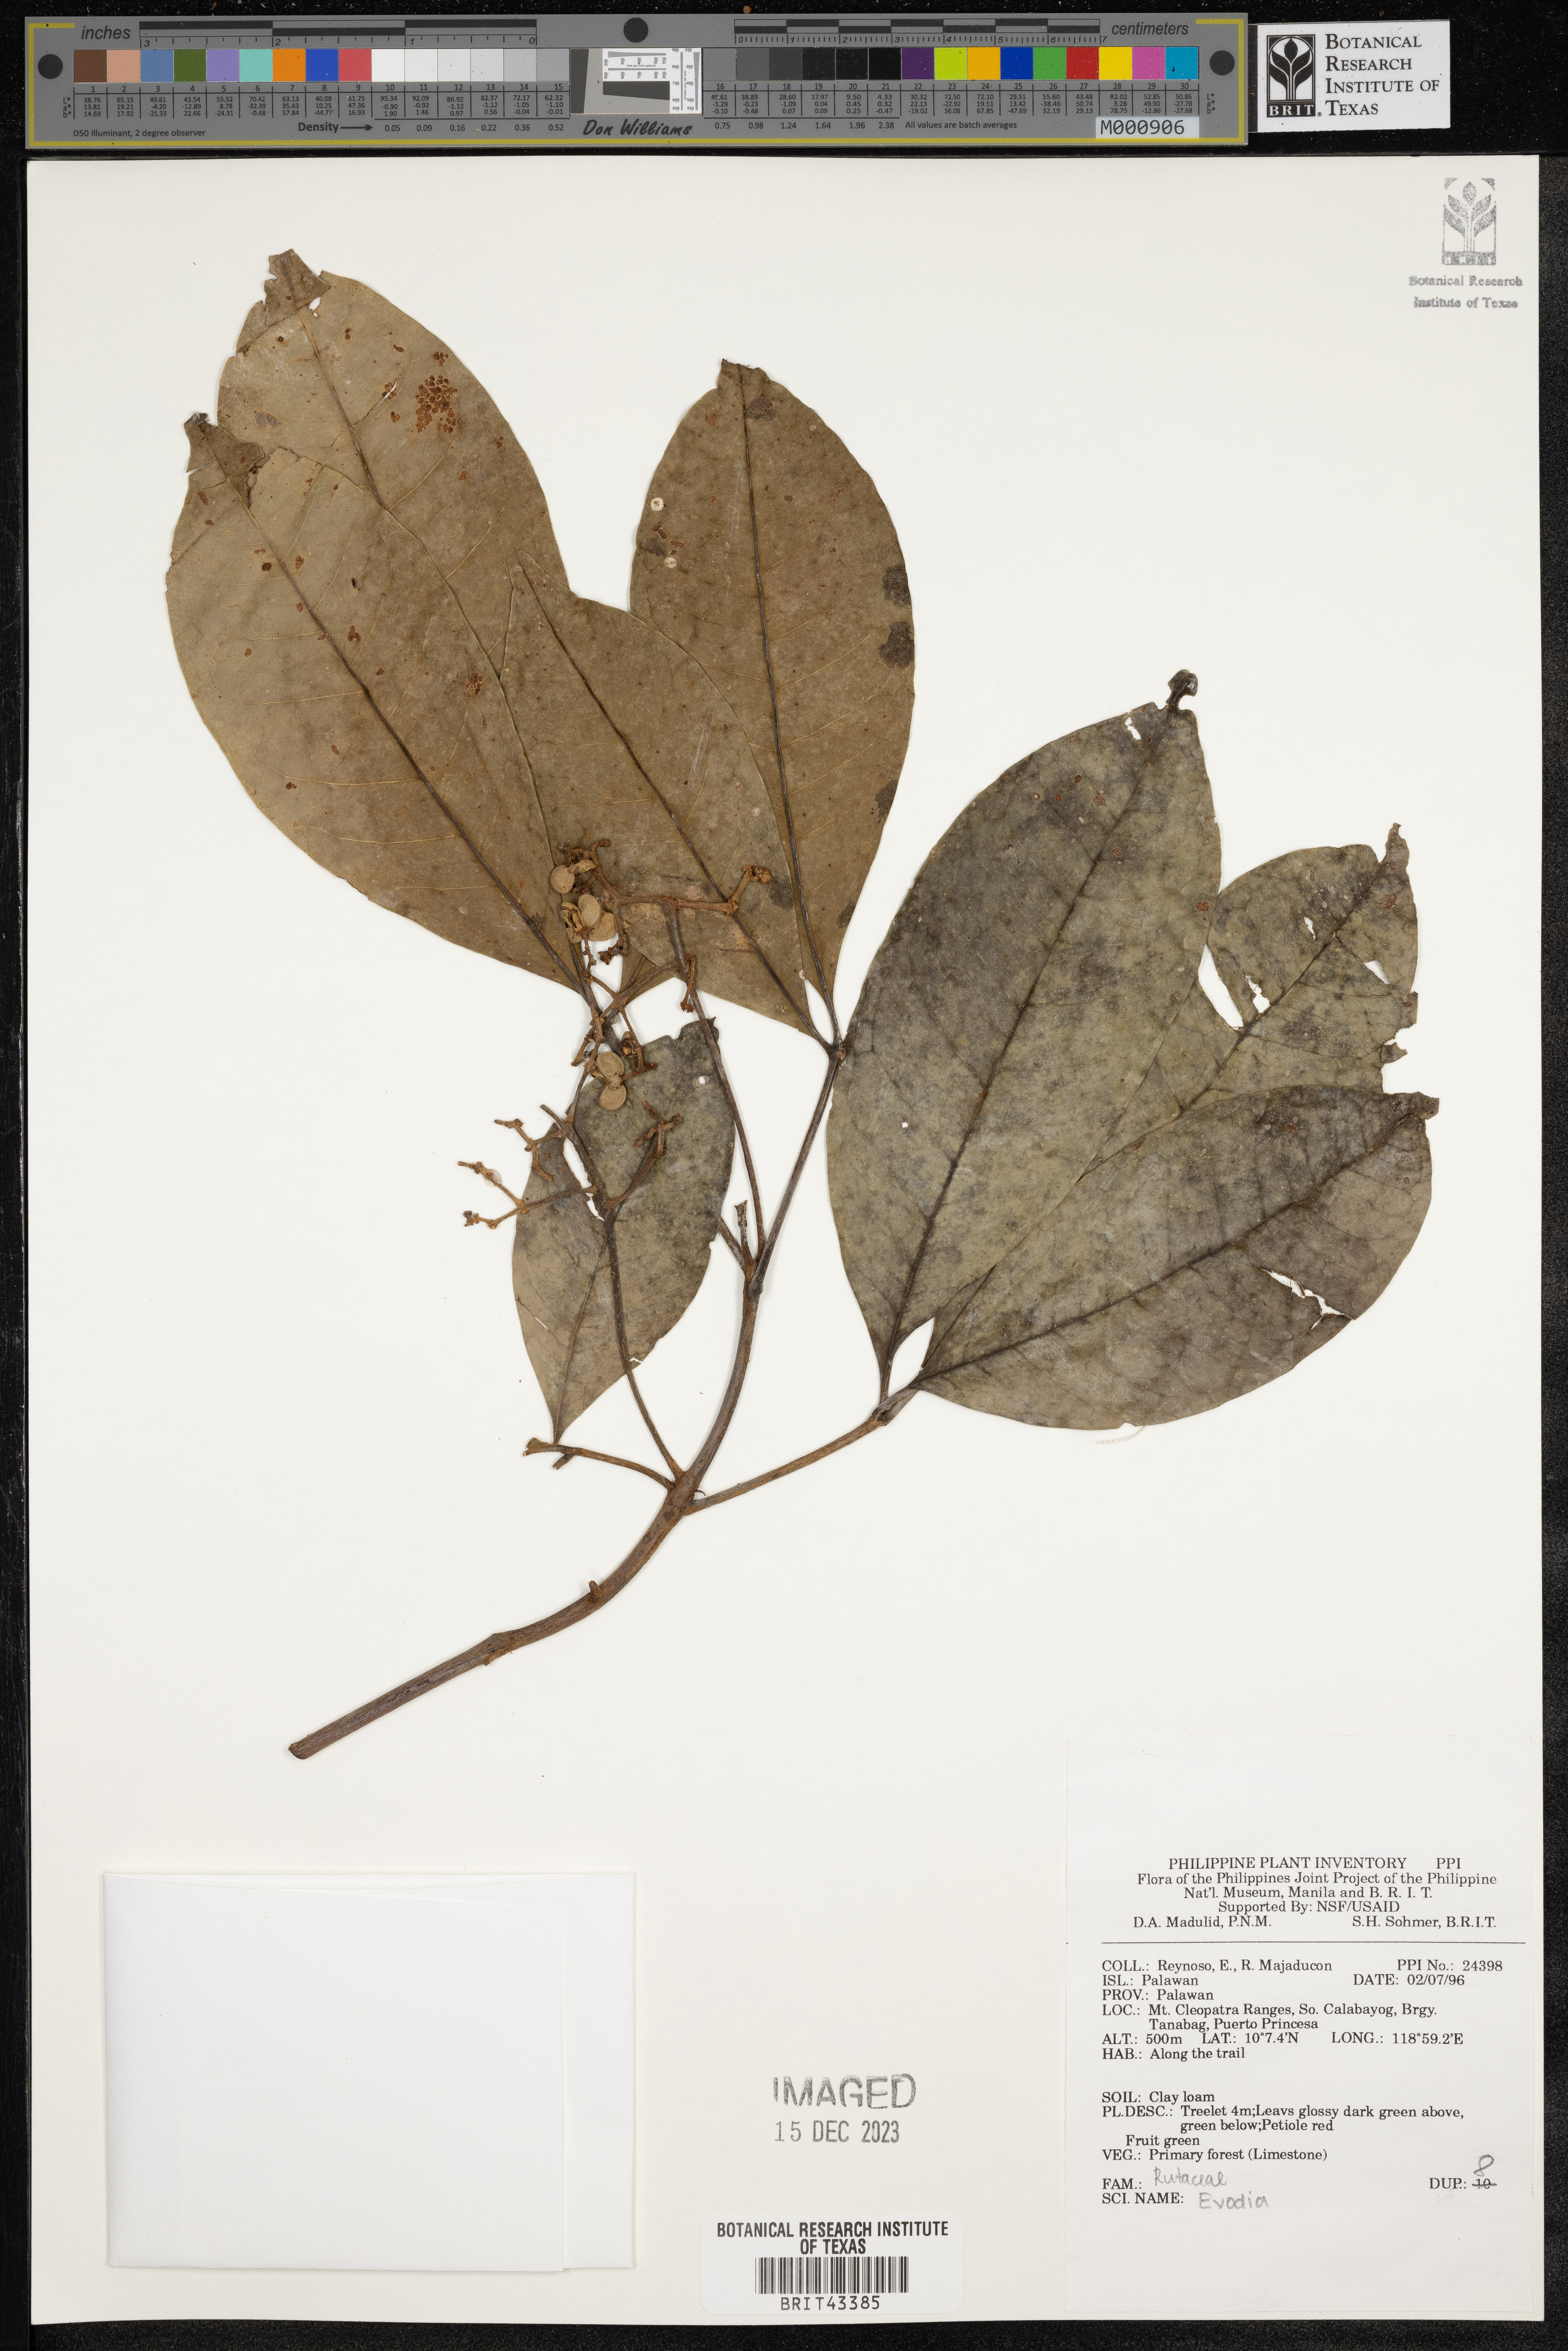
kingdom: Plantae
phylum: Tracheophyta
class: Magnoliopsida
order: Sapindales
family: Rutaceae
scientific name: Rutaceae
